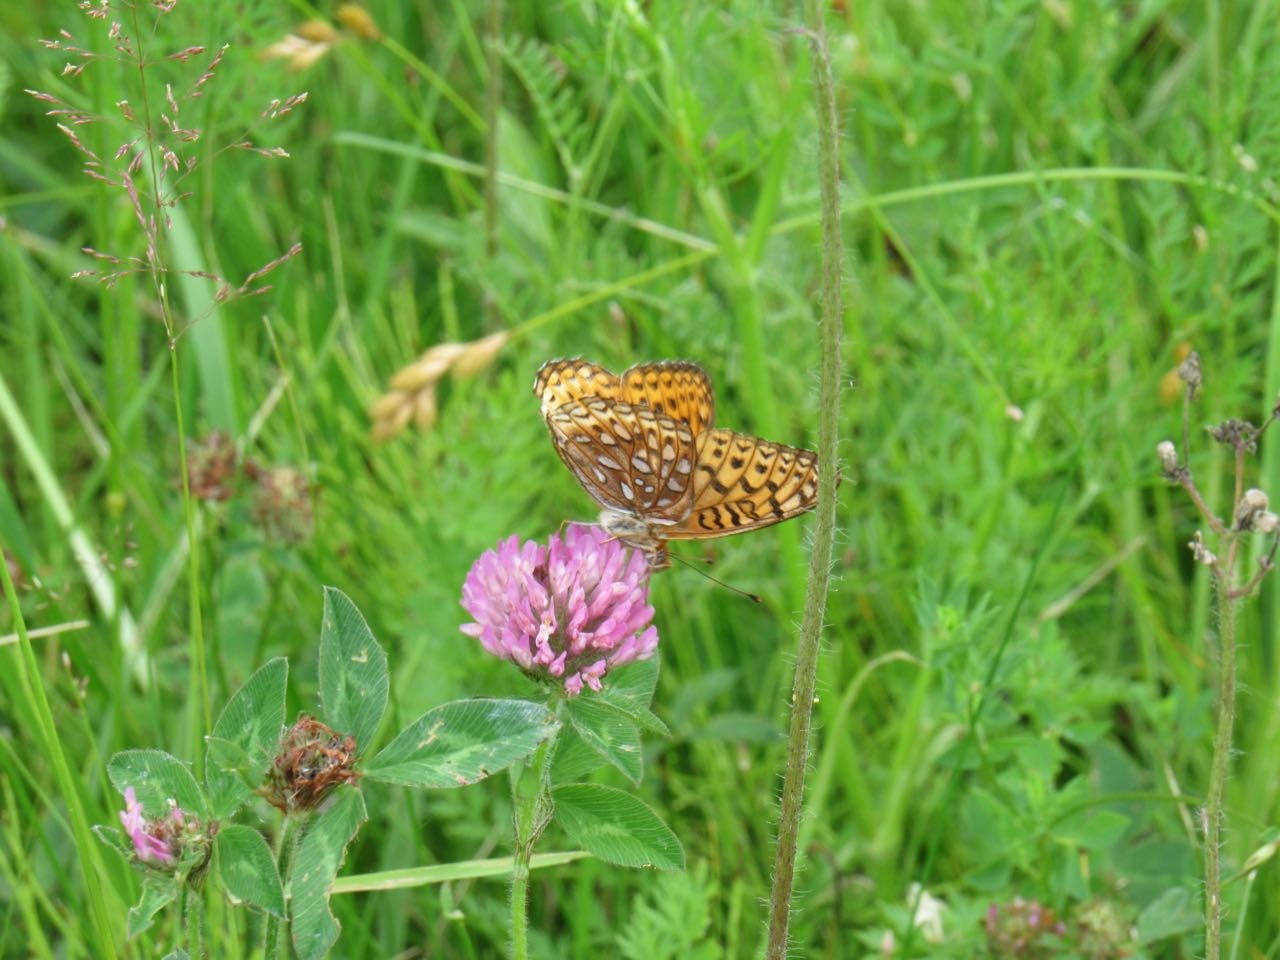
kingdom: Animalia
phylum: Arthropoda
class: Insecta
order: Lepidoptera
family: Nymphalidae
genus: Speyeria
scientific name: Speyeria atlantis
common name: Atlantis Fritillary
